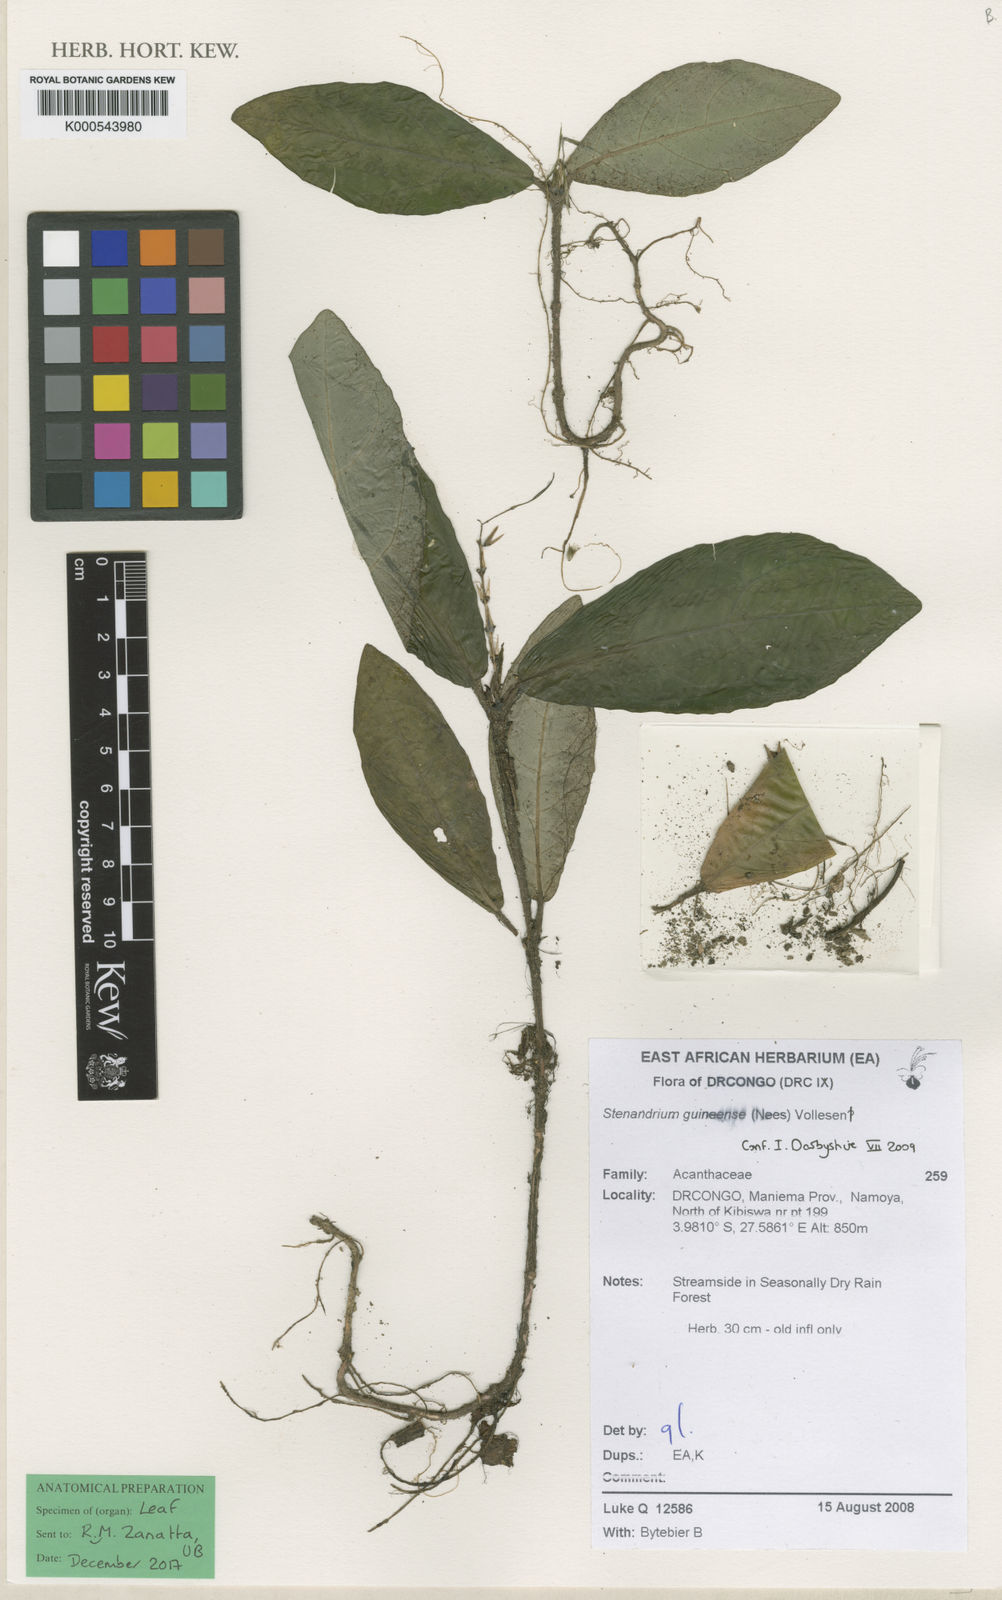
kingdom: Plantae
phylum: Tracheophyta
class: Magnoliopsida
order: Lamiales
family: Acanthaceae
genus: Stenandriopsis
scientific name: Stenandriopsis guineensis
